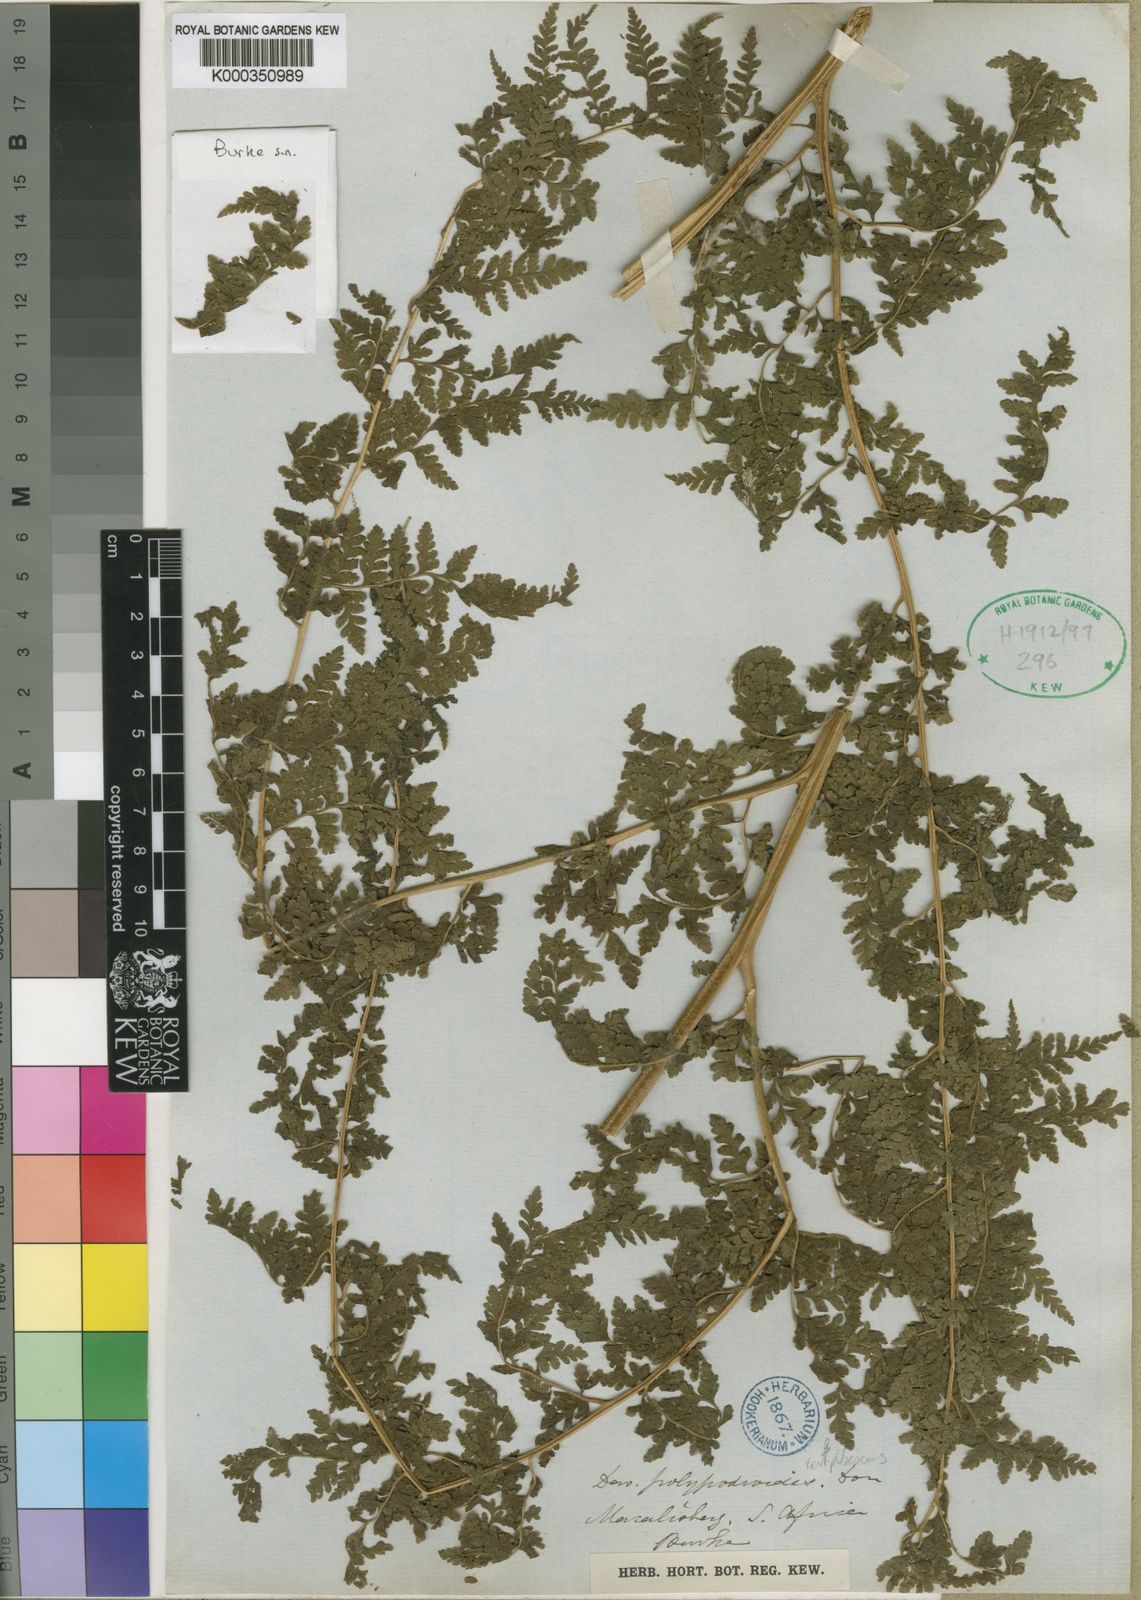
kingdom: Plantae
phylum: Tracheophyta
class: Polypodiopsida
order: Polypodiales
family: Dennstaedtiaceae
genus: Microlepia
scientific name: Microlepia speluncae
